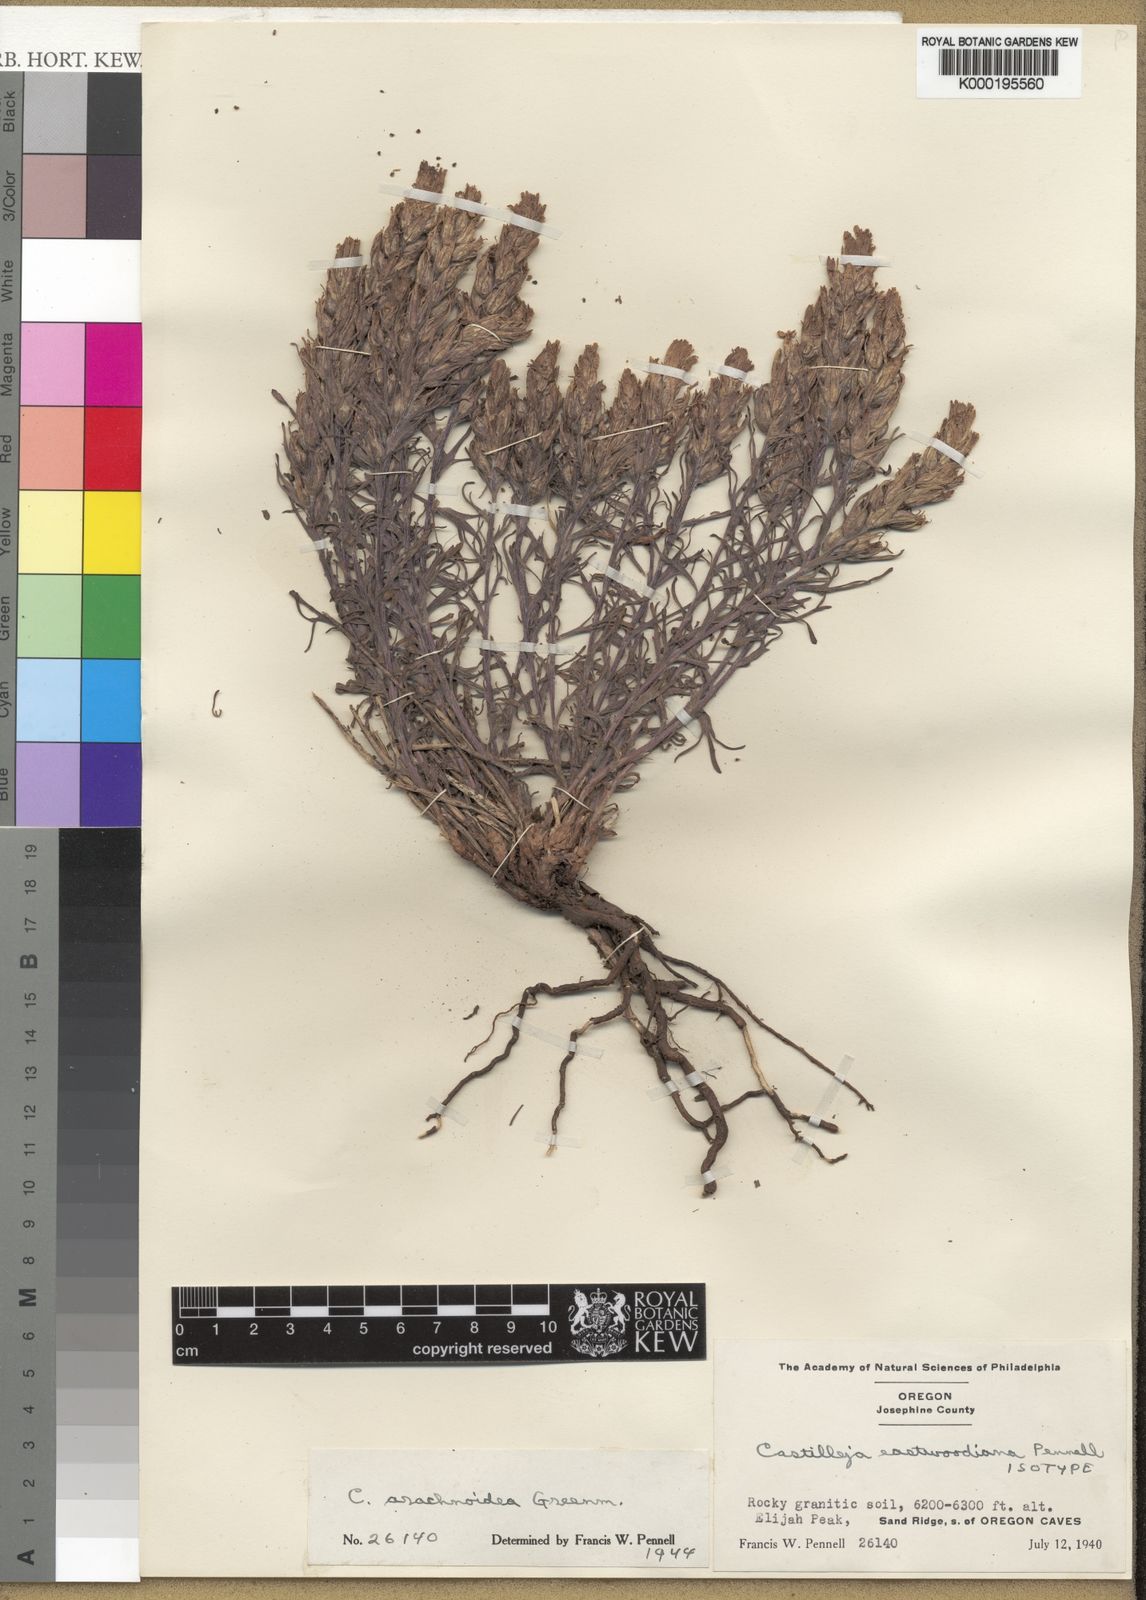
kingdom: Plantae
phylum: Tracheophyta
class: Magnoliopsida
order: Lamiales
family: Orobanchaceae
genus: Castilleja
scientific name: Castilleja arachnoidea
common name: Cobwebby indian paintbrush
